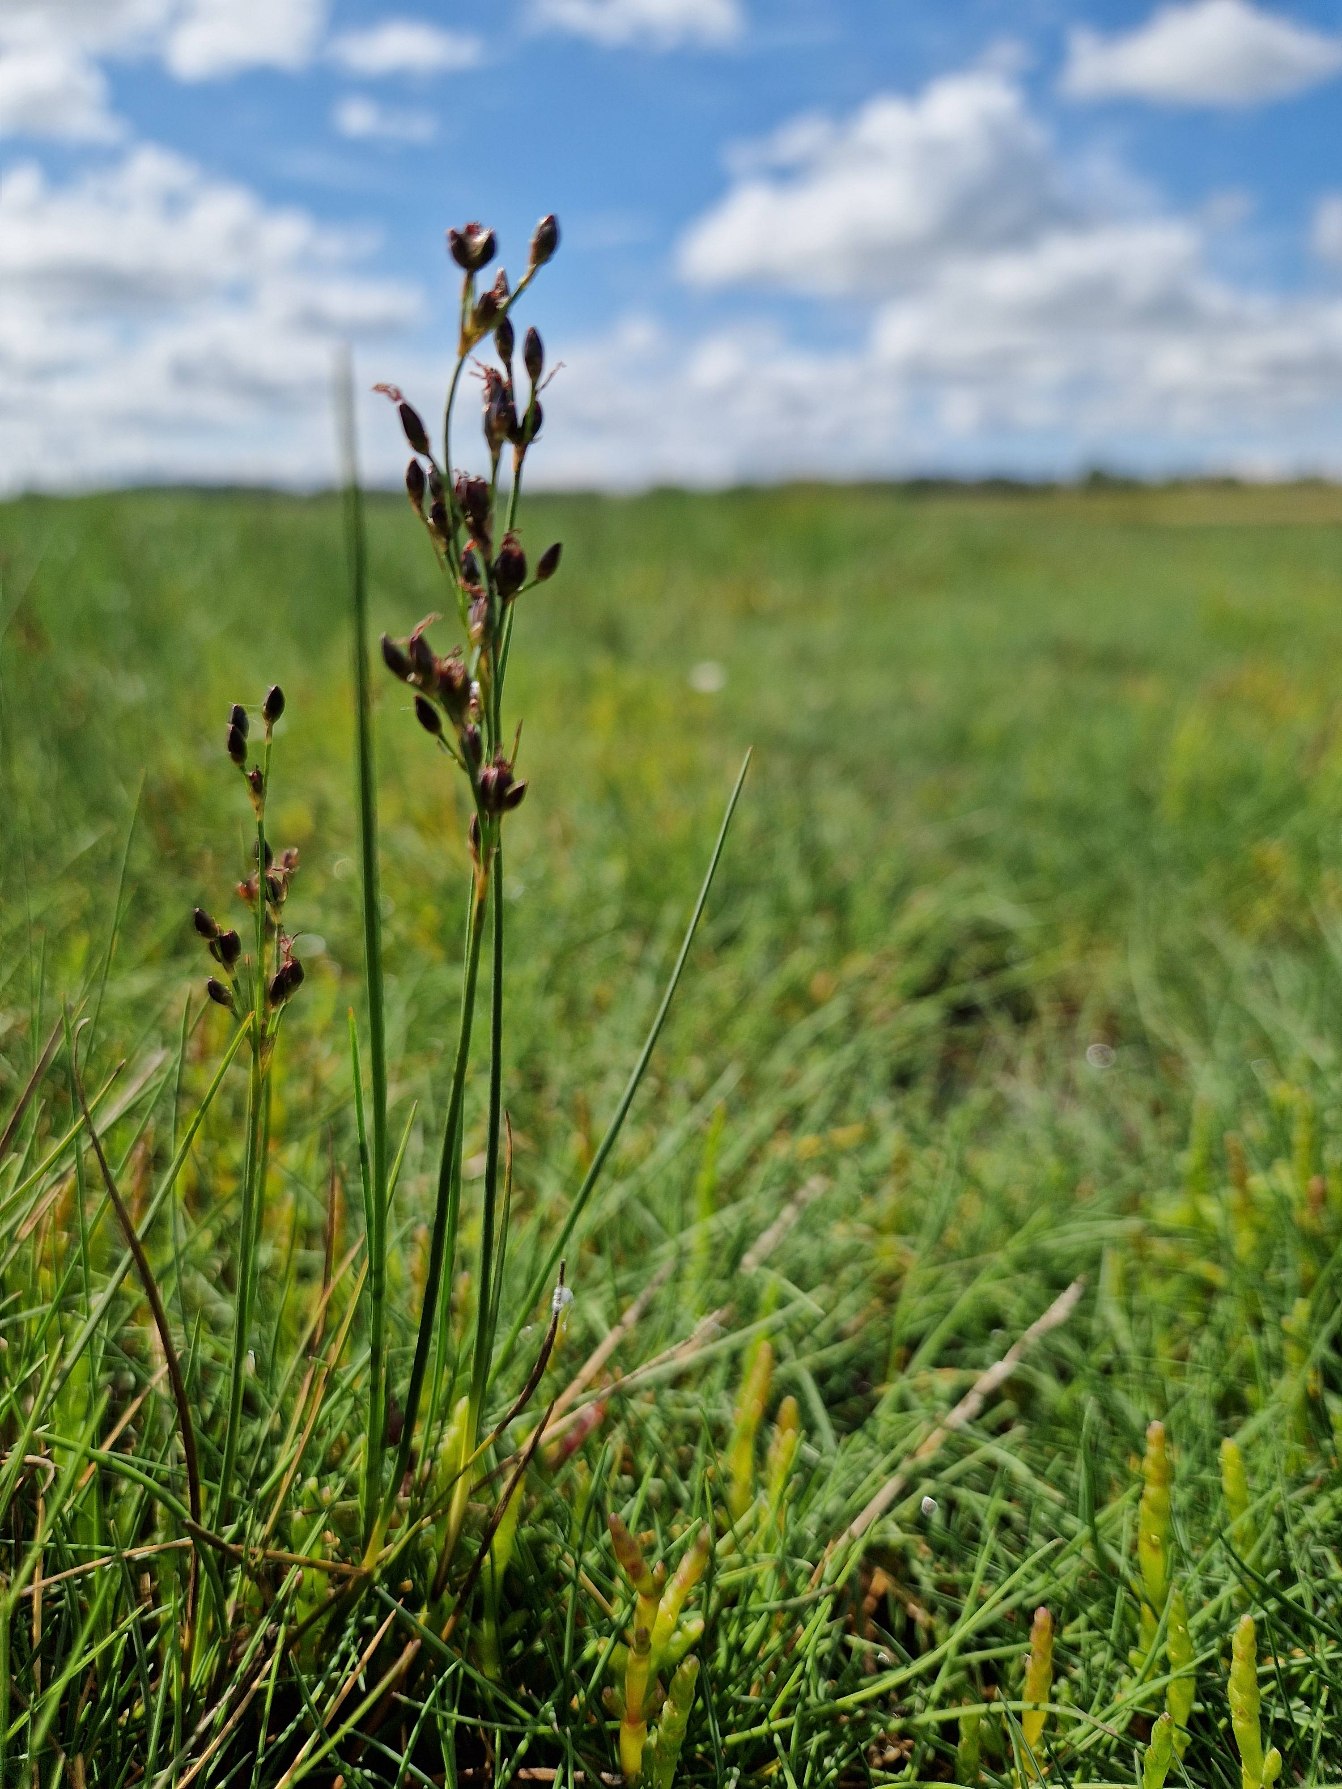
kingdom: Plantae
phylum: Tracheophyta
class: Liliopsida
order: Poales
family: Juncaceae
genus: Juncus
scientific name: Juncus gerardi
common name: Harril
